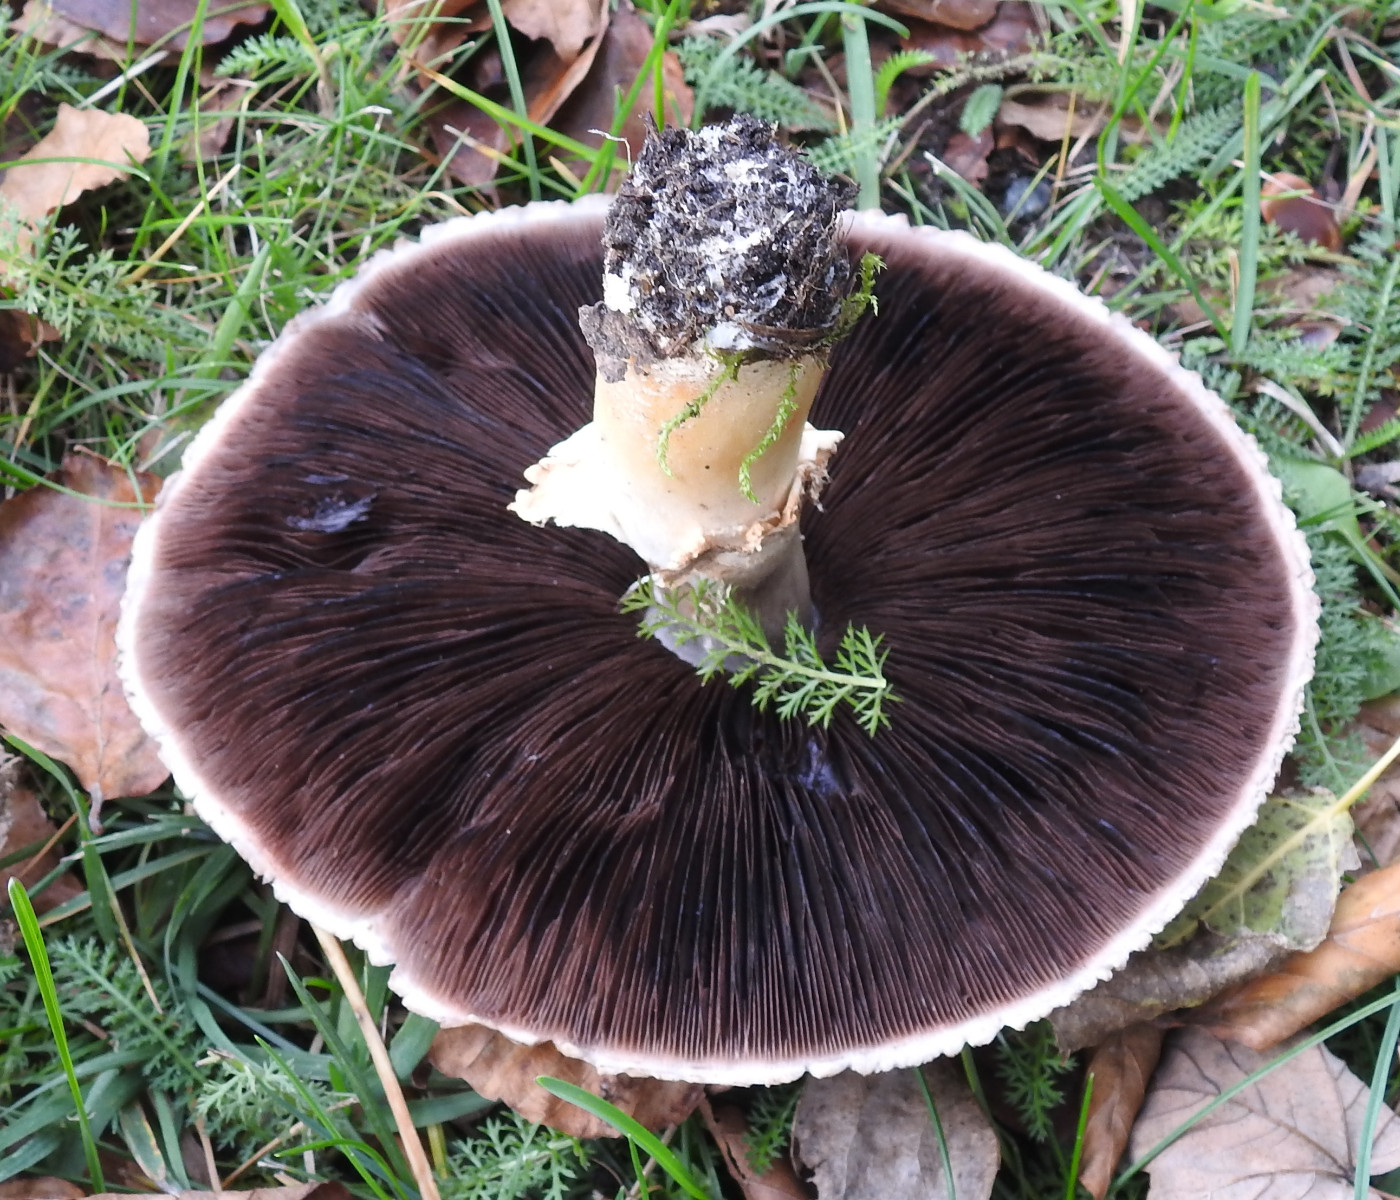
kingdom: Fungi
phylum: Basidiomycota
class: Agaricomycetes
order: Agaricales
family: Agaricaceae
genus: Agaricus
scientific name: Agaricus arvensis
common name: ager-champignon
